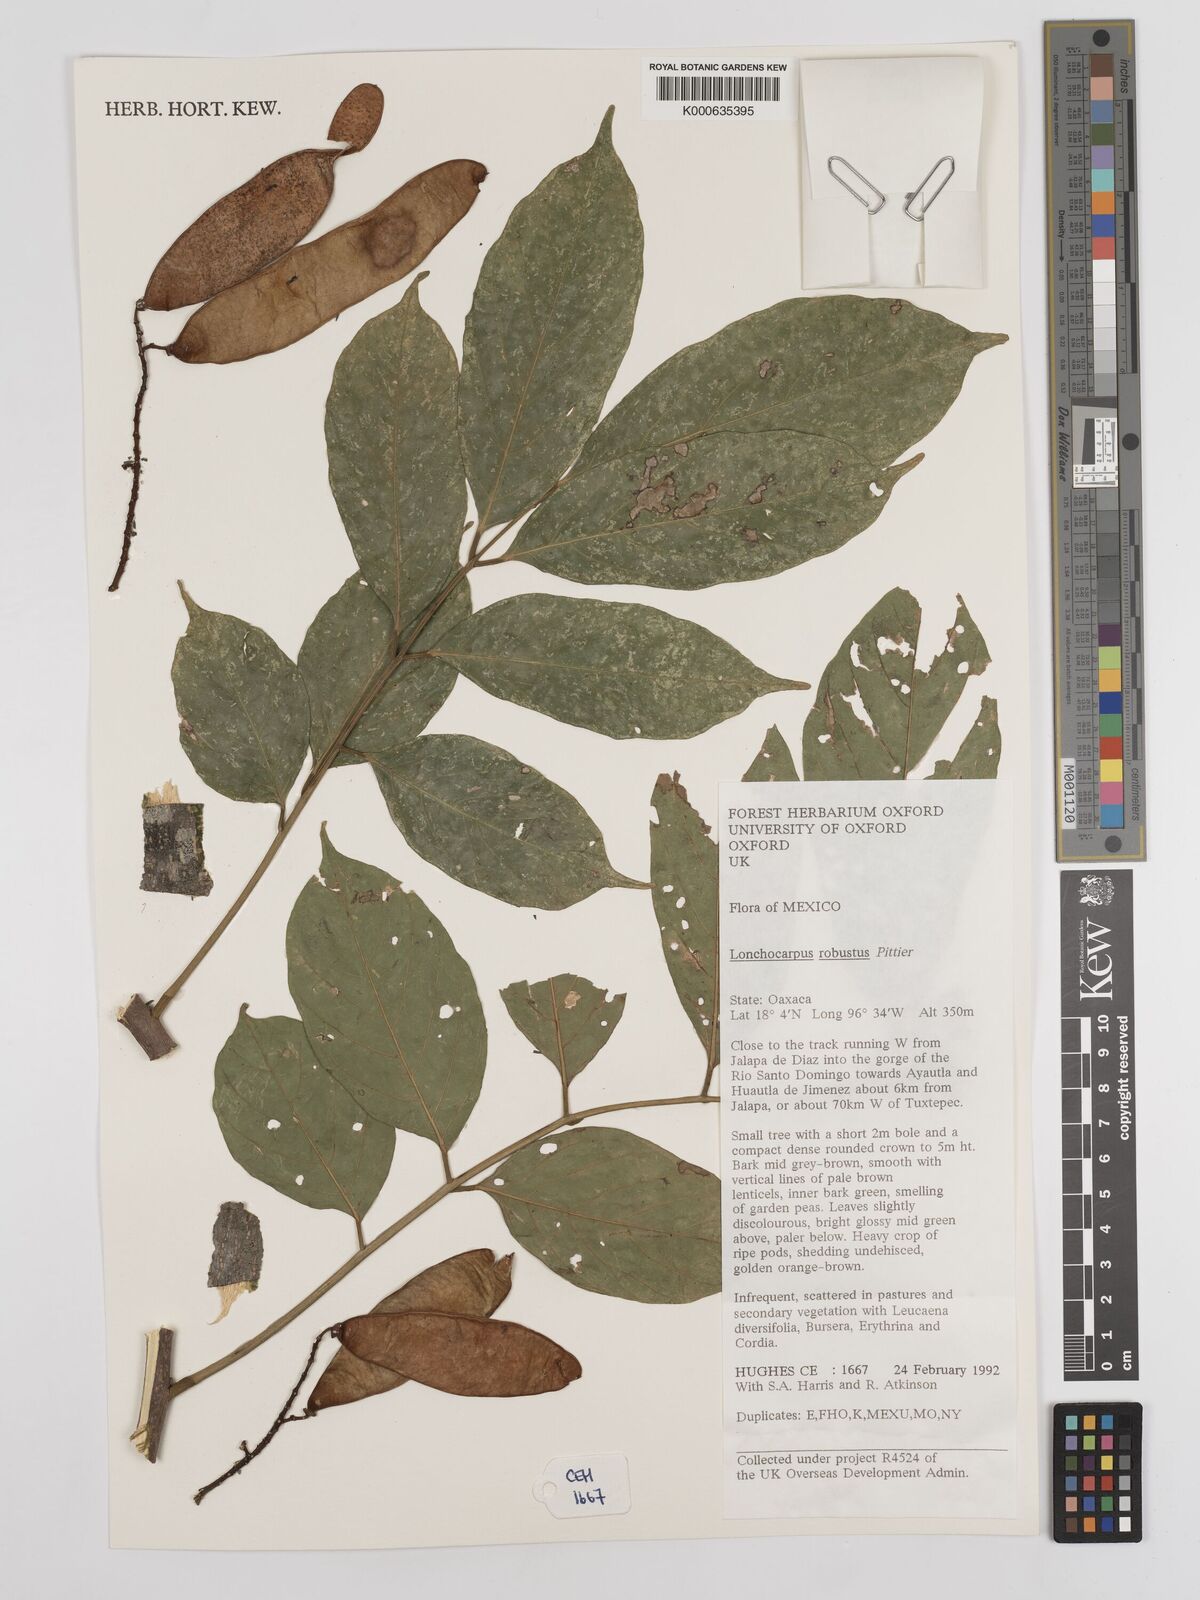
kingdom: Plantae
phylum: Tracheophyta
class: Magnoliopsida
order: Fabales
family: Fabaceae
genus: Lonchocarpus
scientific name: Lonchocarpus robustus
